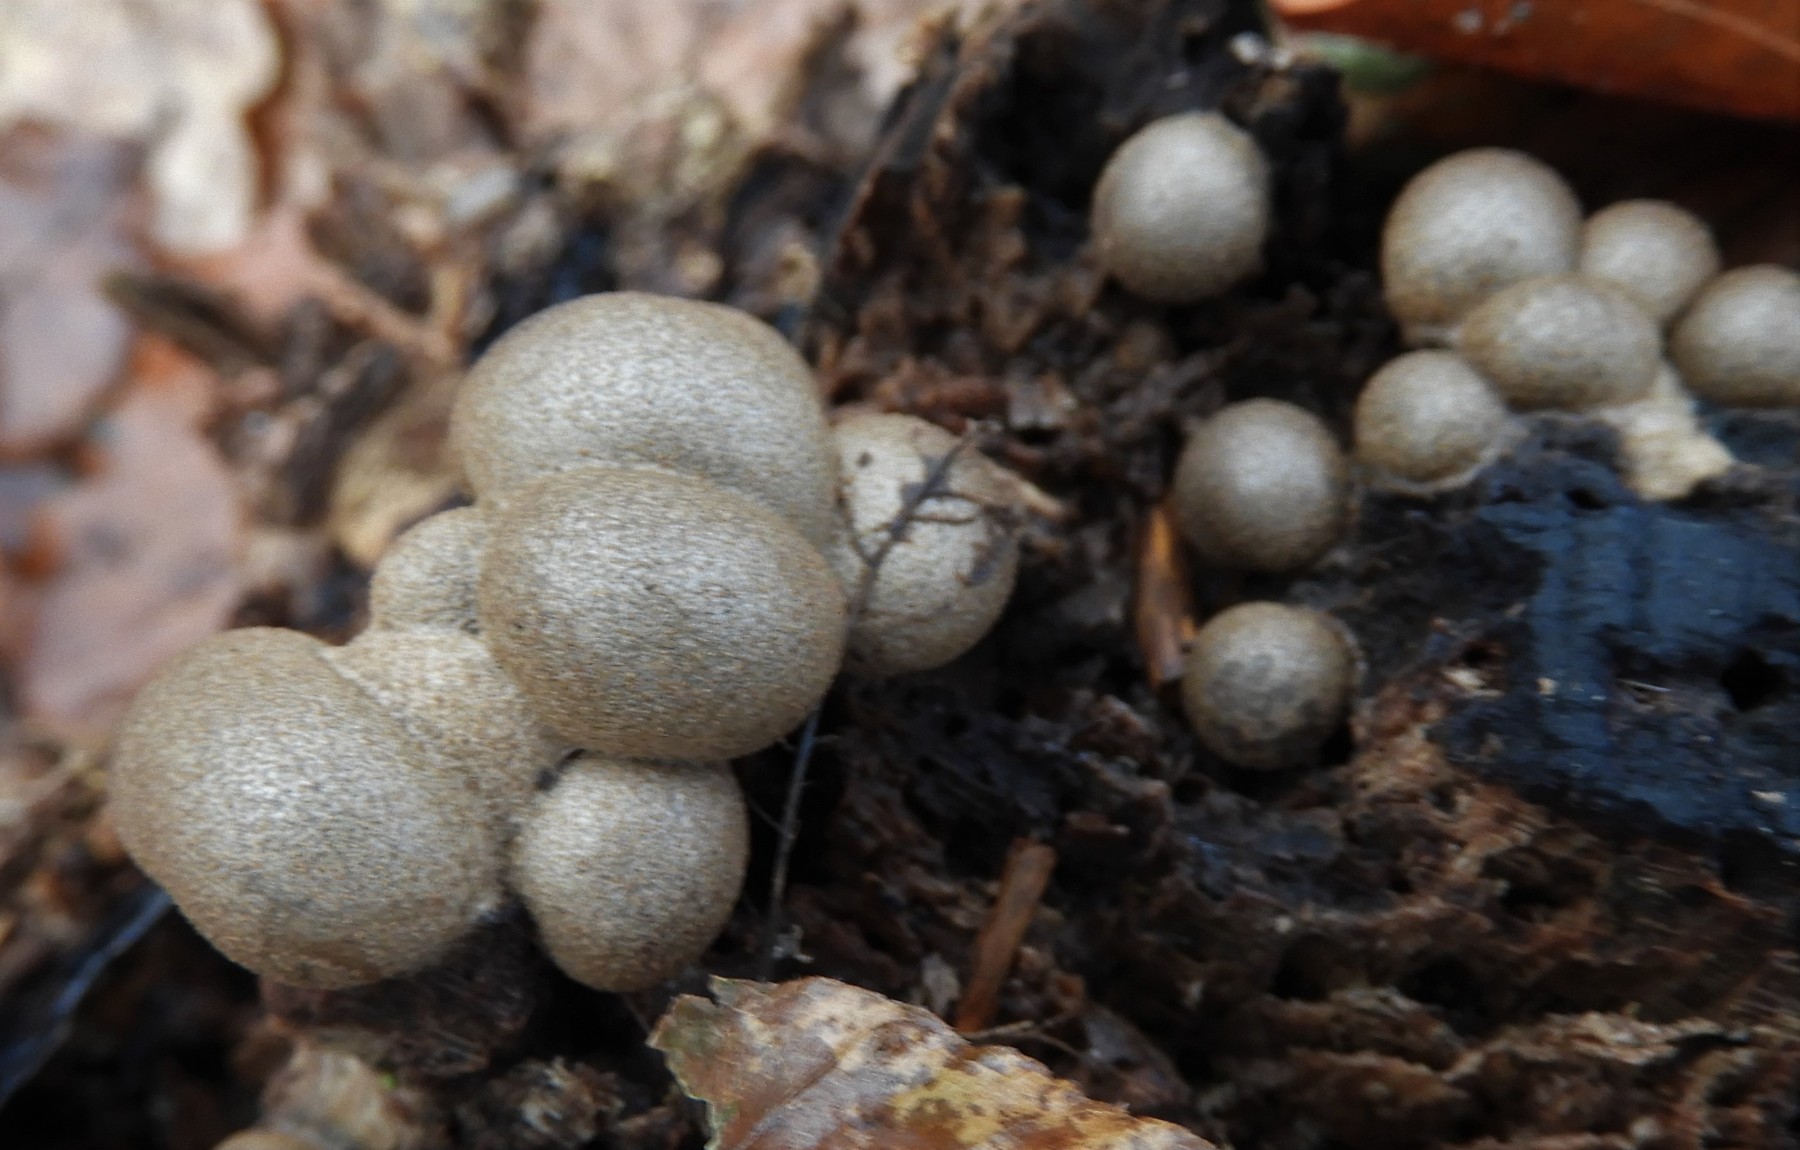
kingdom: Protozoa
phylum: Mycetozoa
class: Myxomycetes
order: Cribrariales
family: Tubiferaceae
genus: Lycogala
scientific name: Lycogala epidendrum
